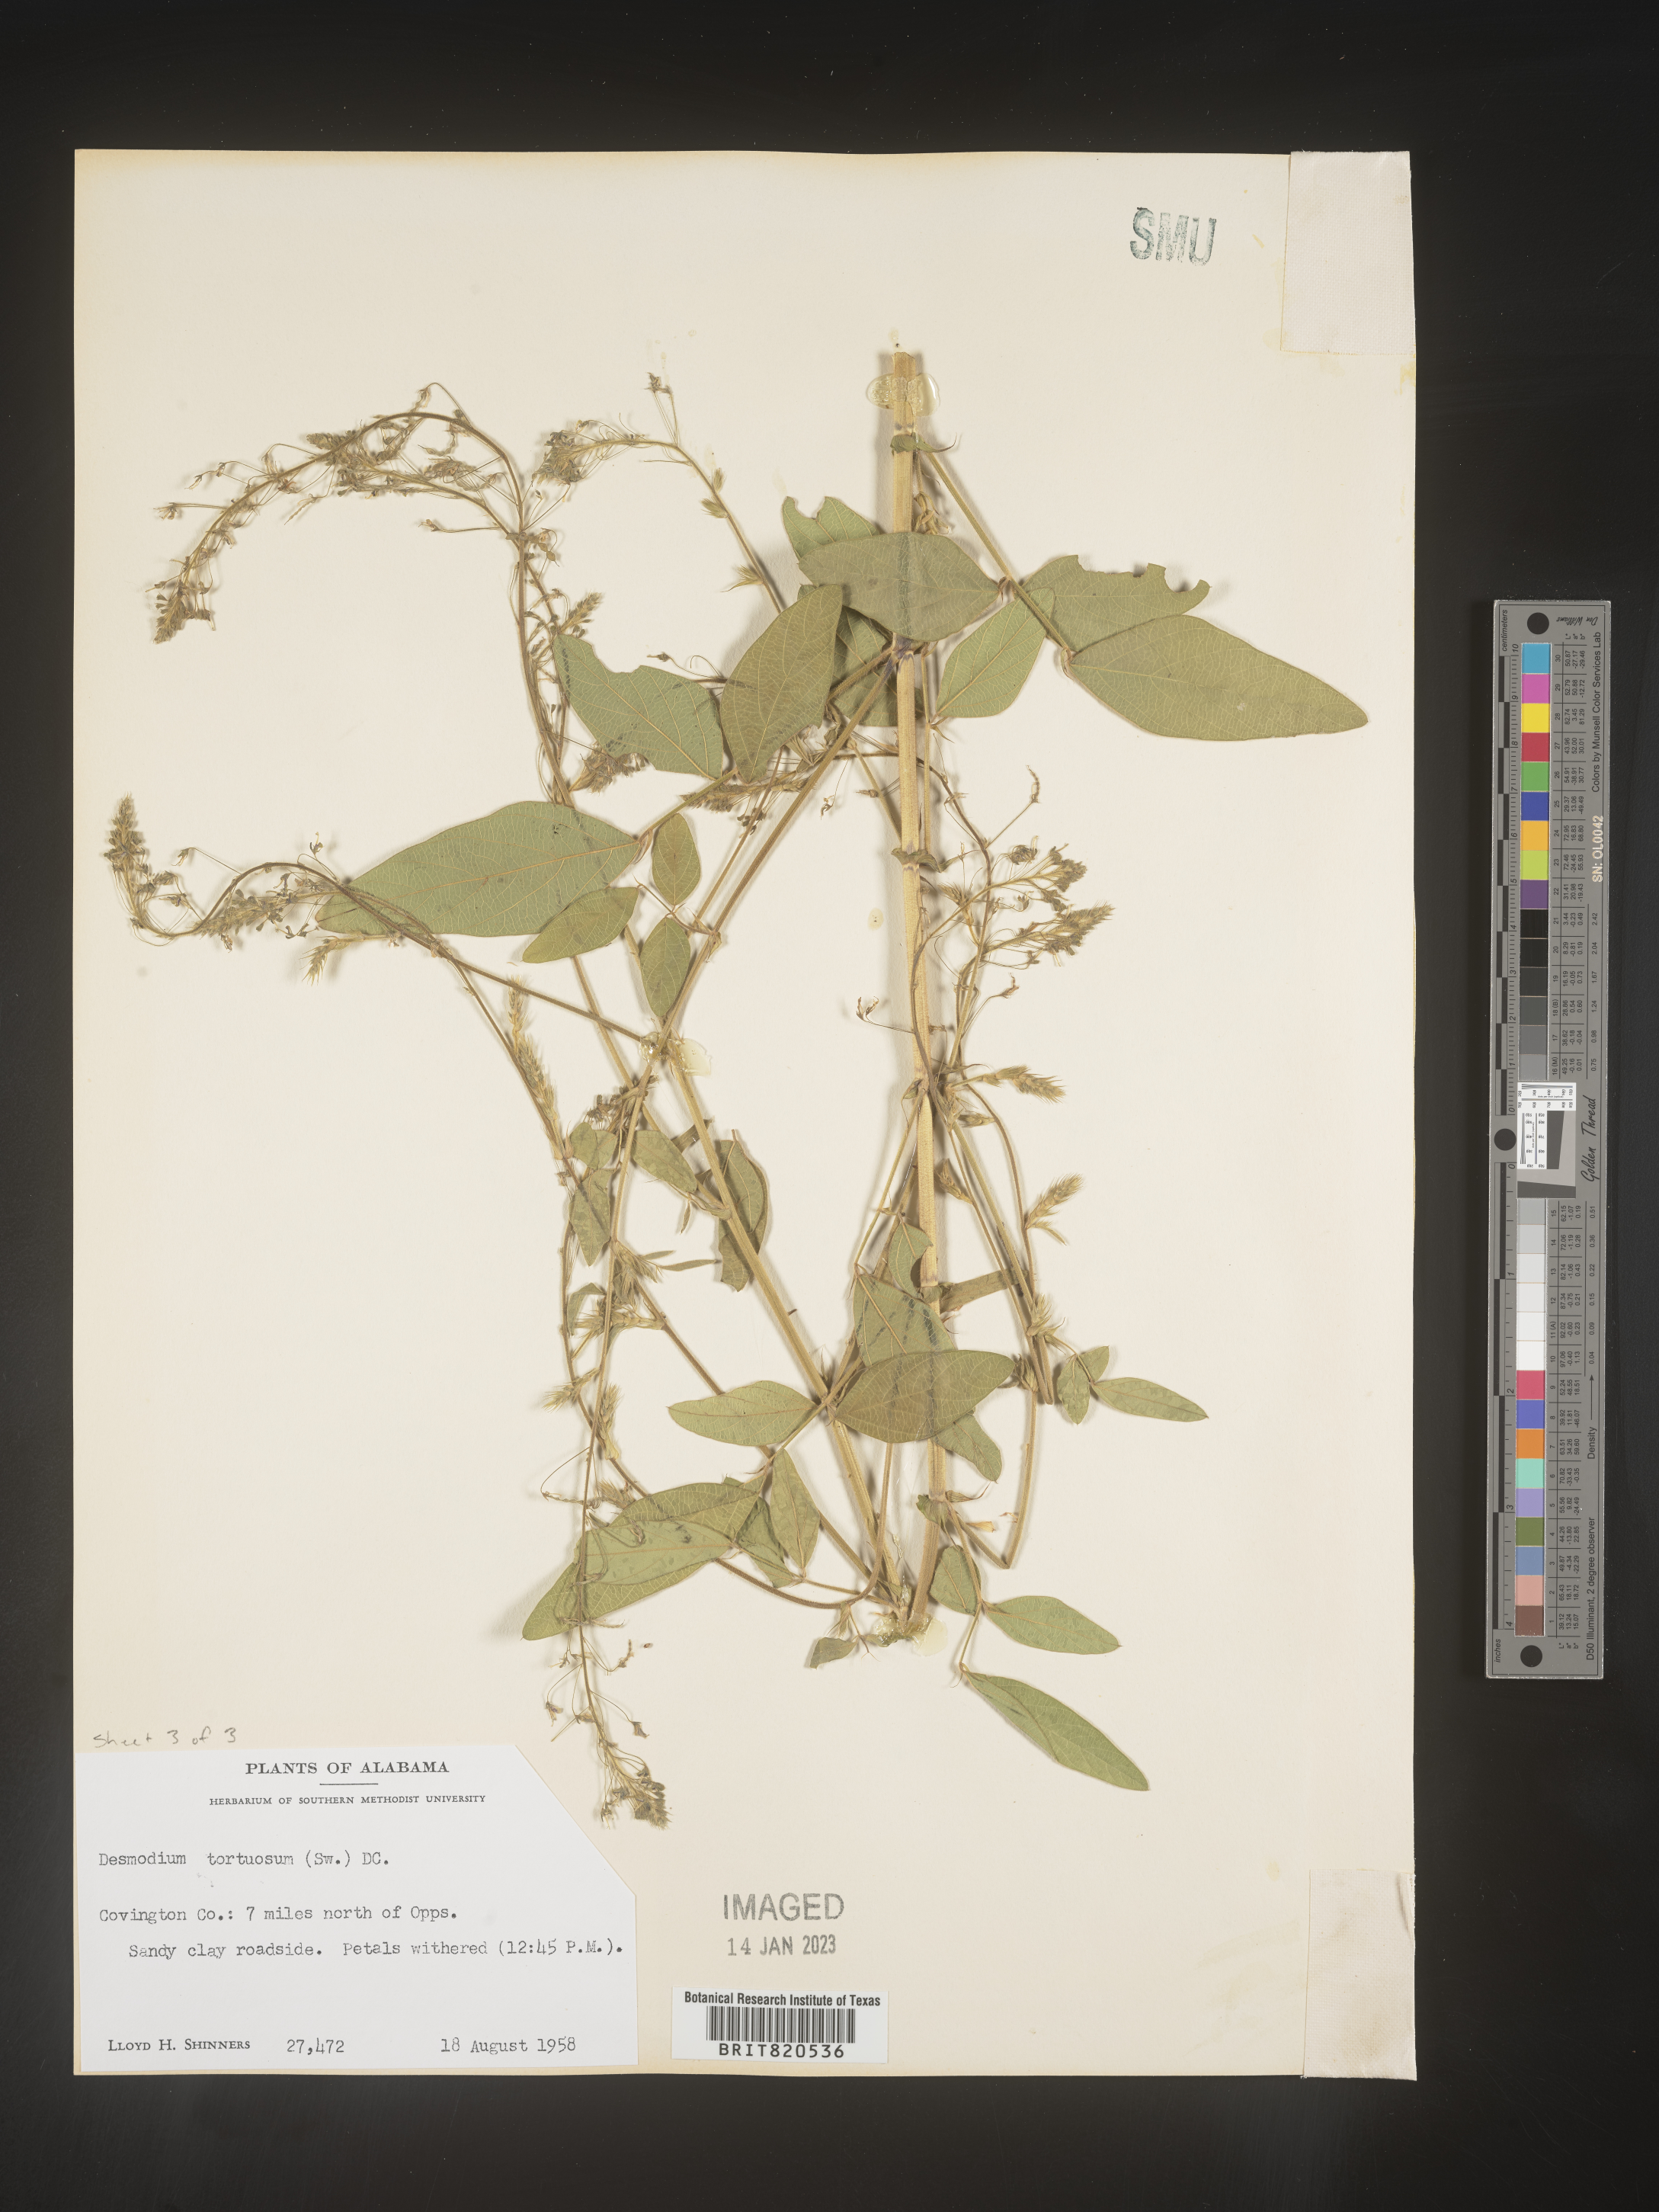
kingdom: Plantae
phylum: Tracheophyta
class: Magnoliopsida
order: Fabales
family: Fabaceae
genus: Desmodium
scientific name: Desmodium tortuosum
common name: Dixie ticktrefoil
